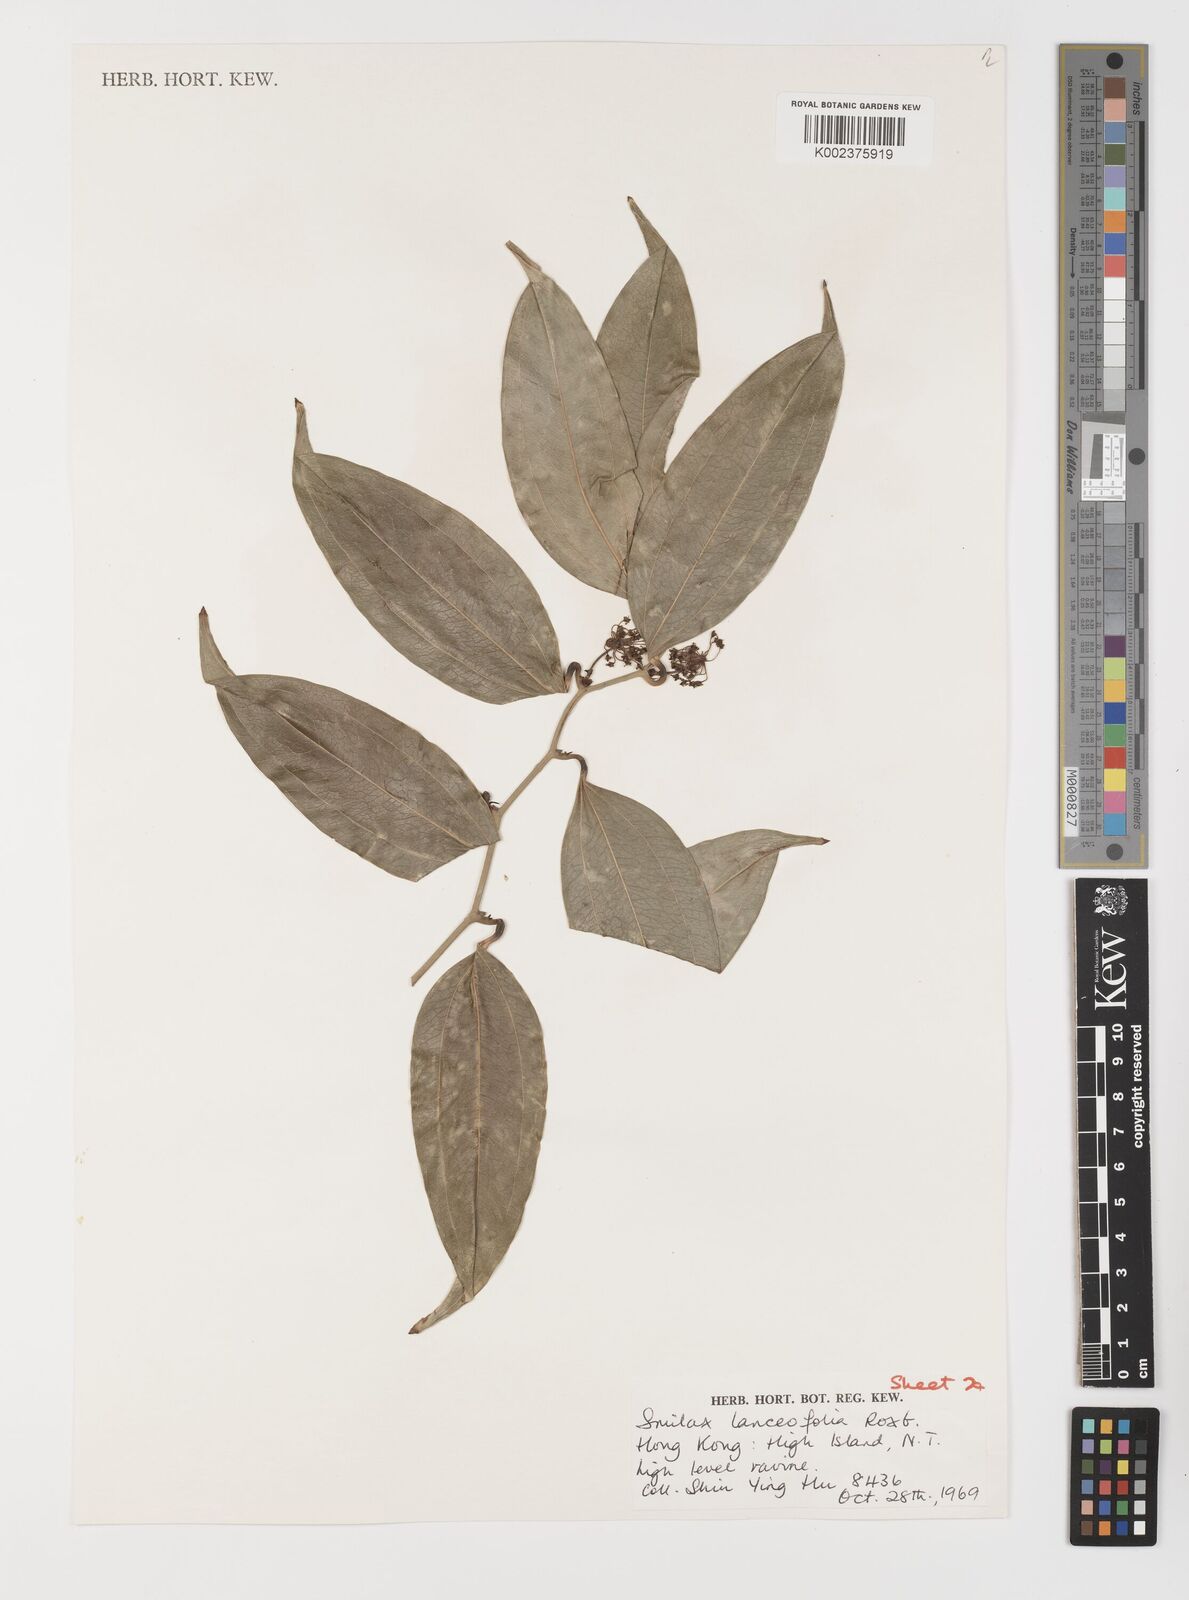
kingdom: Plantae
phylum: Tracheophyta
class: Liliopsida
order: Liliales
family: Smilacaceae
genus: Smilax
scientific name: Smilax lanceifolia
